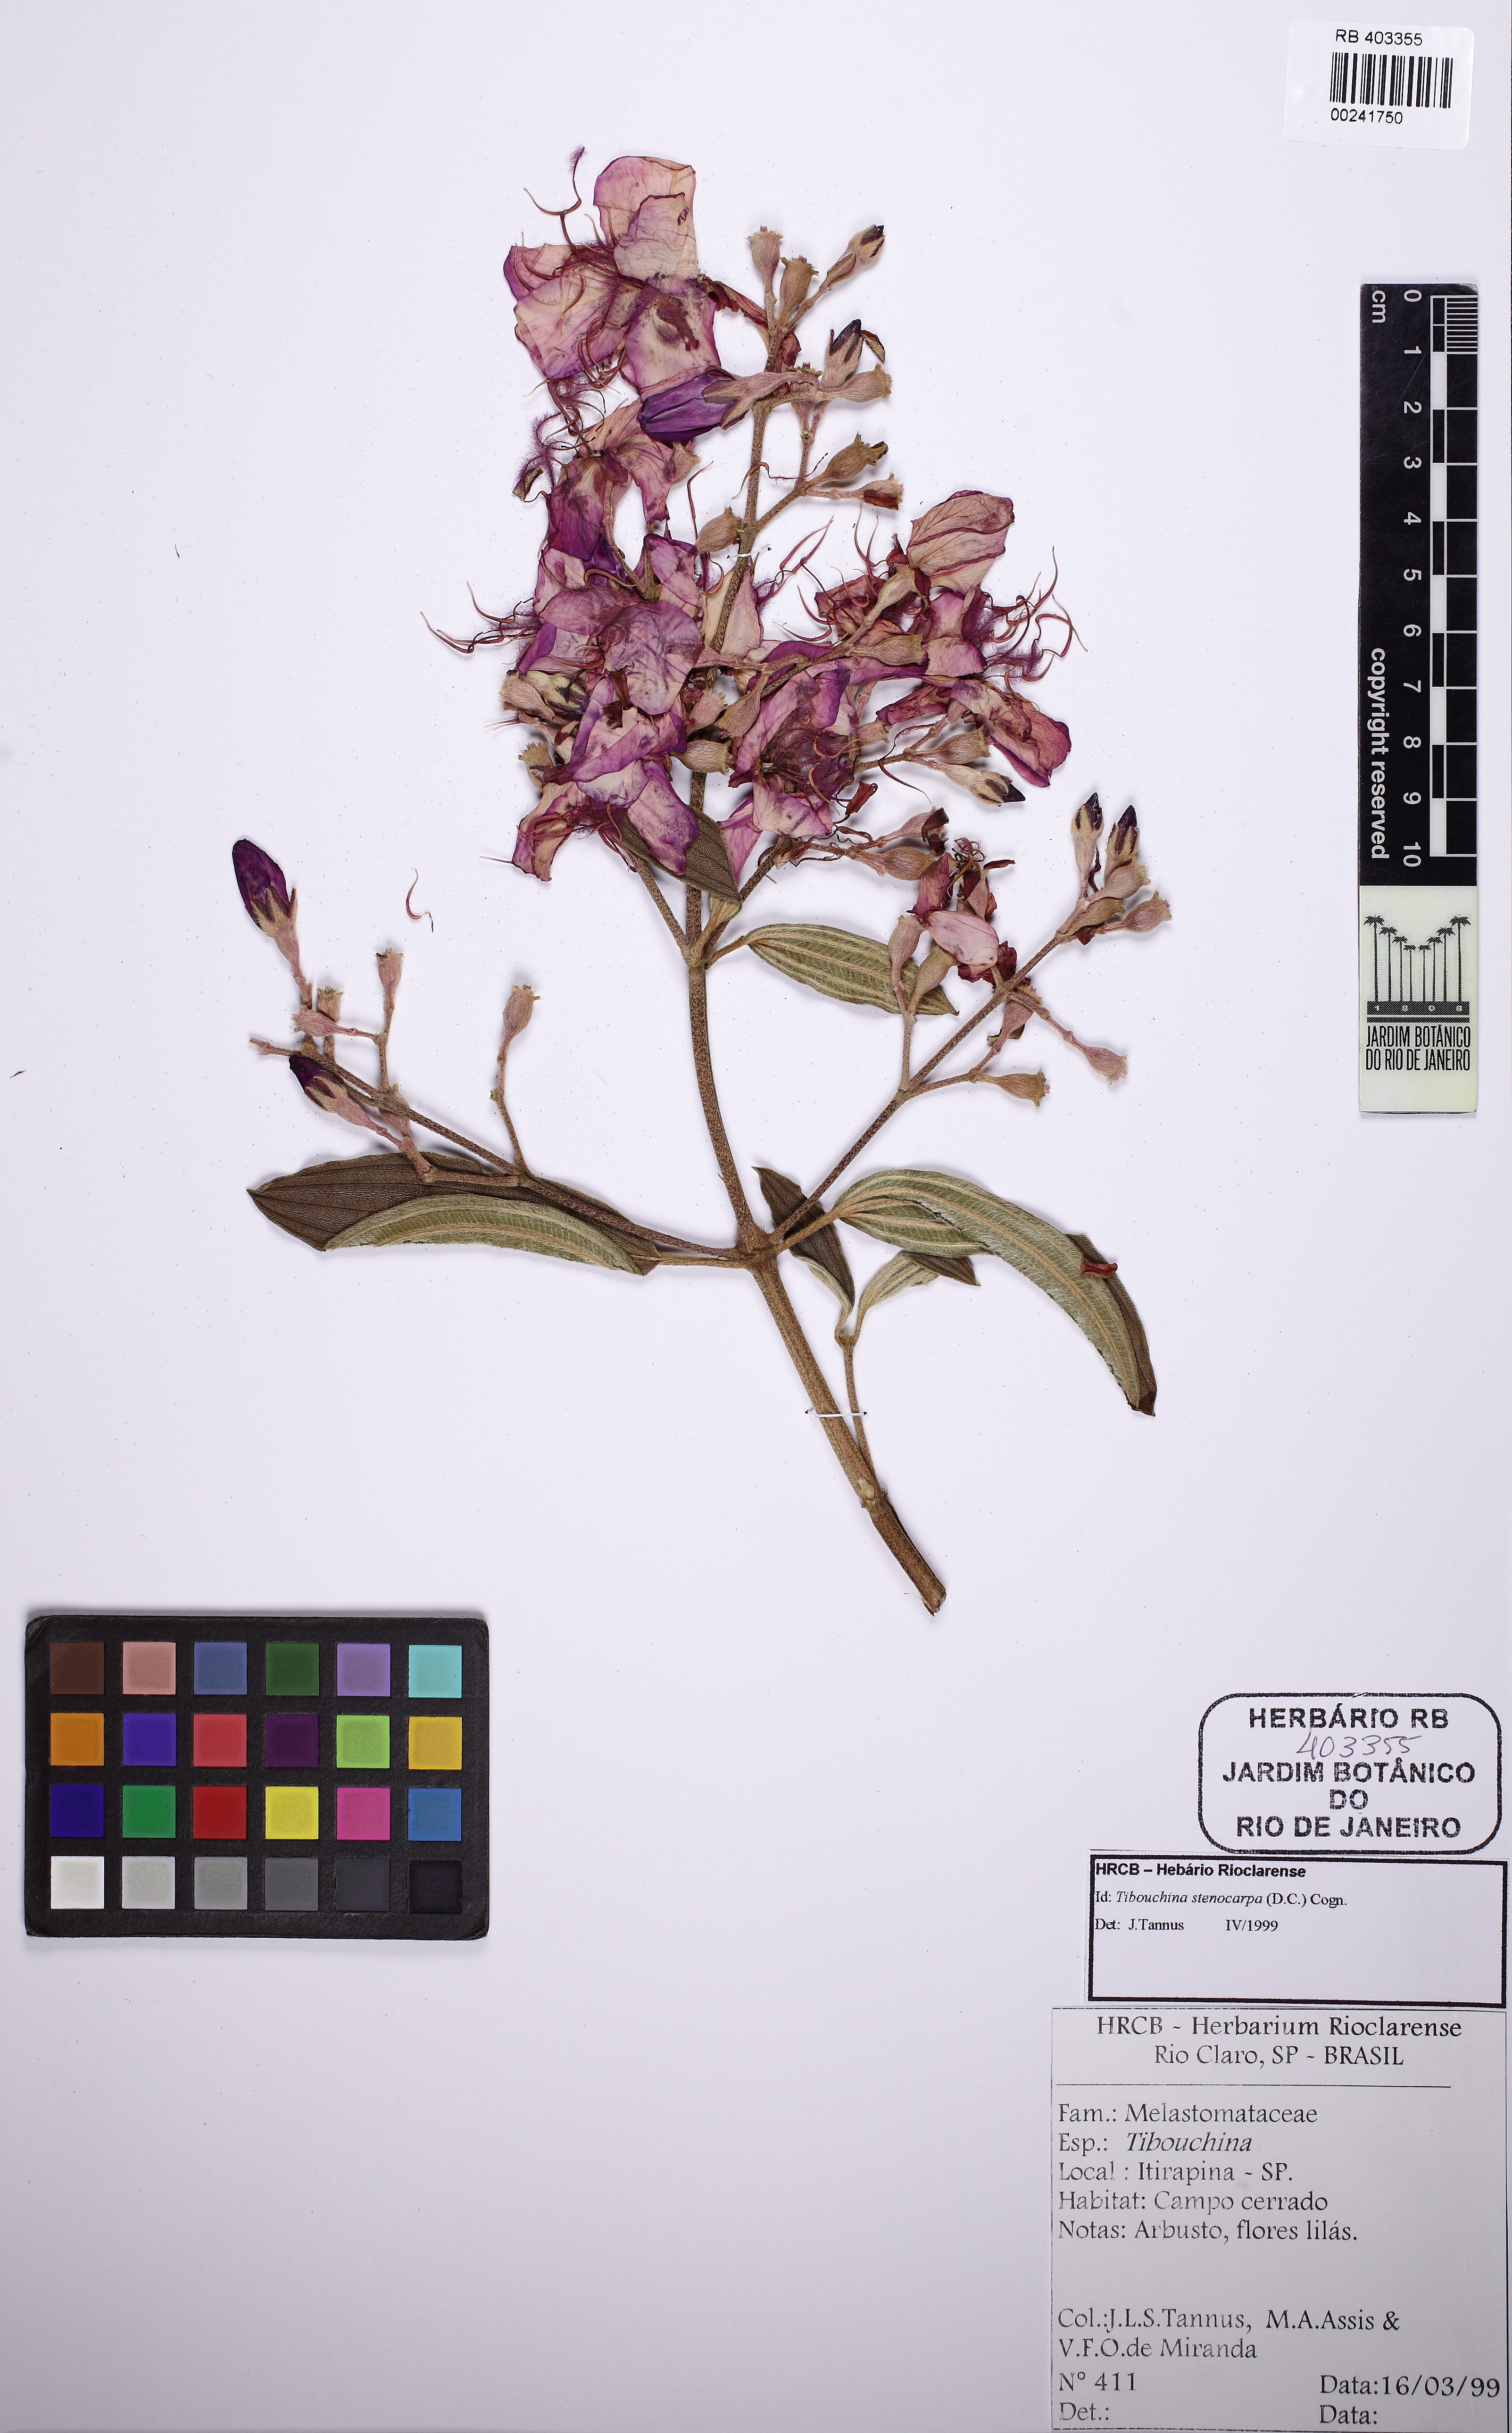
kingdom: Plantae
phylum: Tracheophyta
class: Magnoliopsida
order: Myrtales
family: Melastomataceae
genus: Pleroma
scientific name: Pleroma stenocarpum
